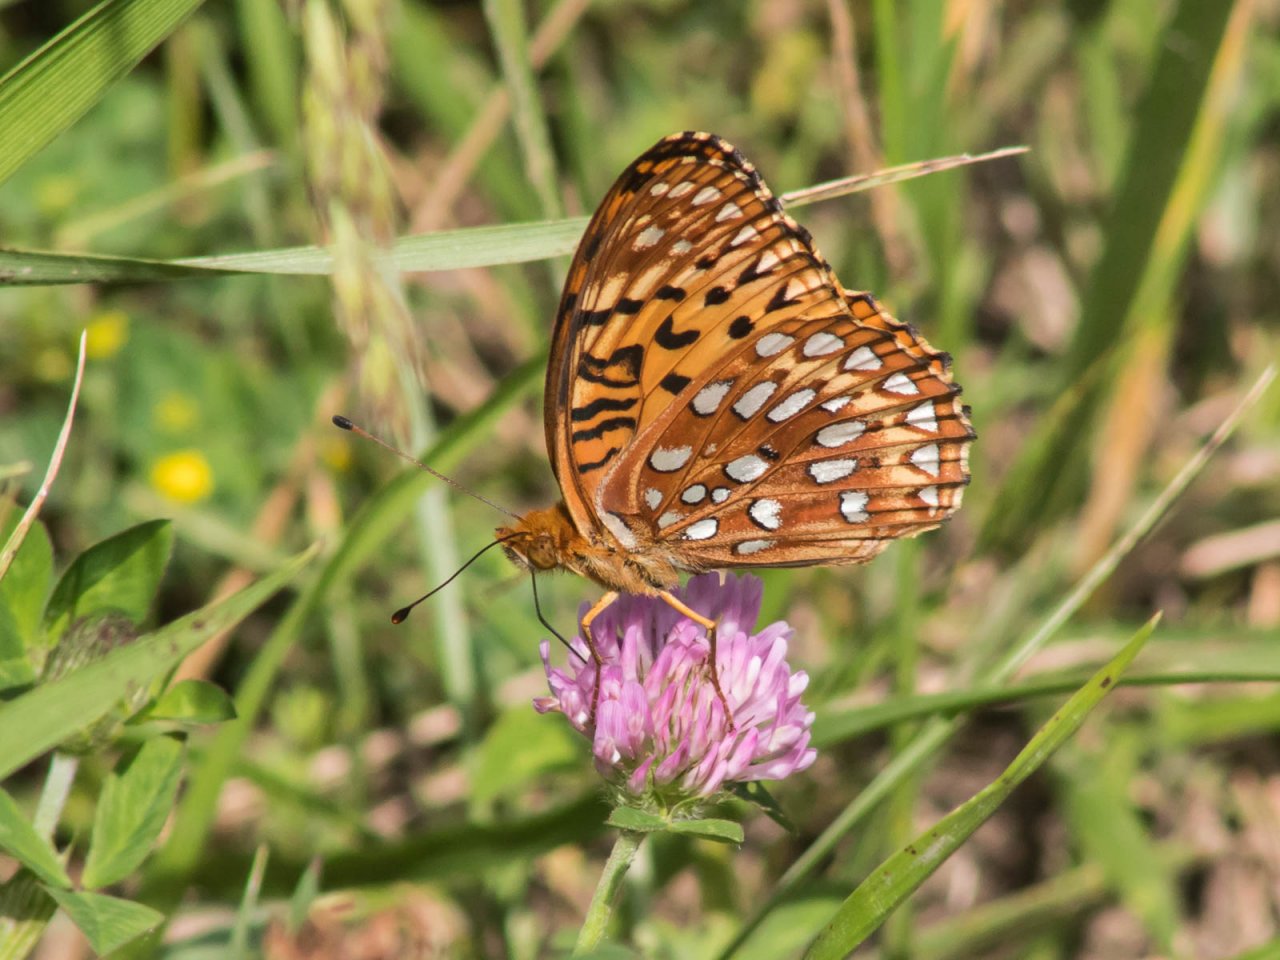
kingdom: Animalia
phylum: Arthropoda
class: Insecta
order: Lepidoptera
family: Nymphalidae
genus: Speyeria
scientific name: Speyeria aphrodite
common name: Aphrodite Fritillary
